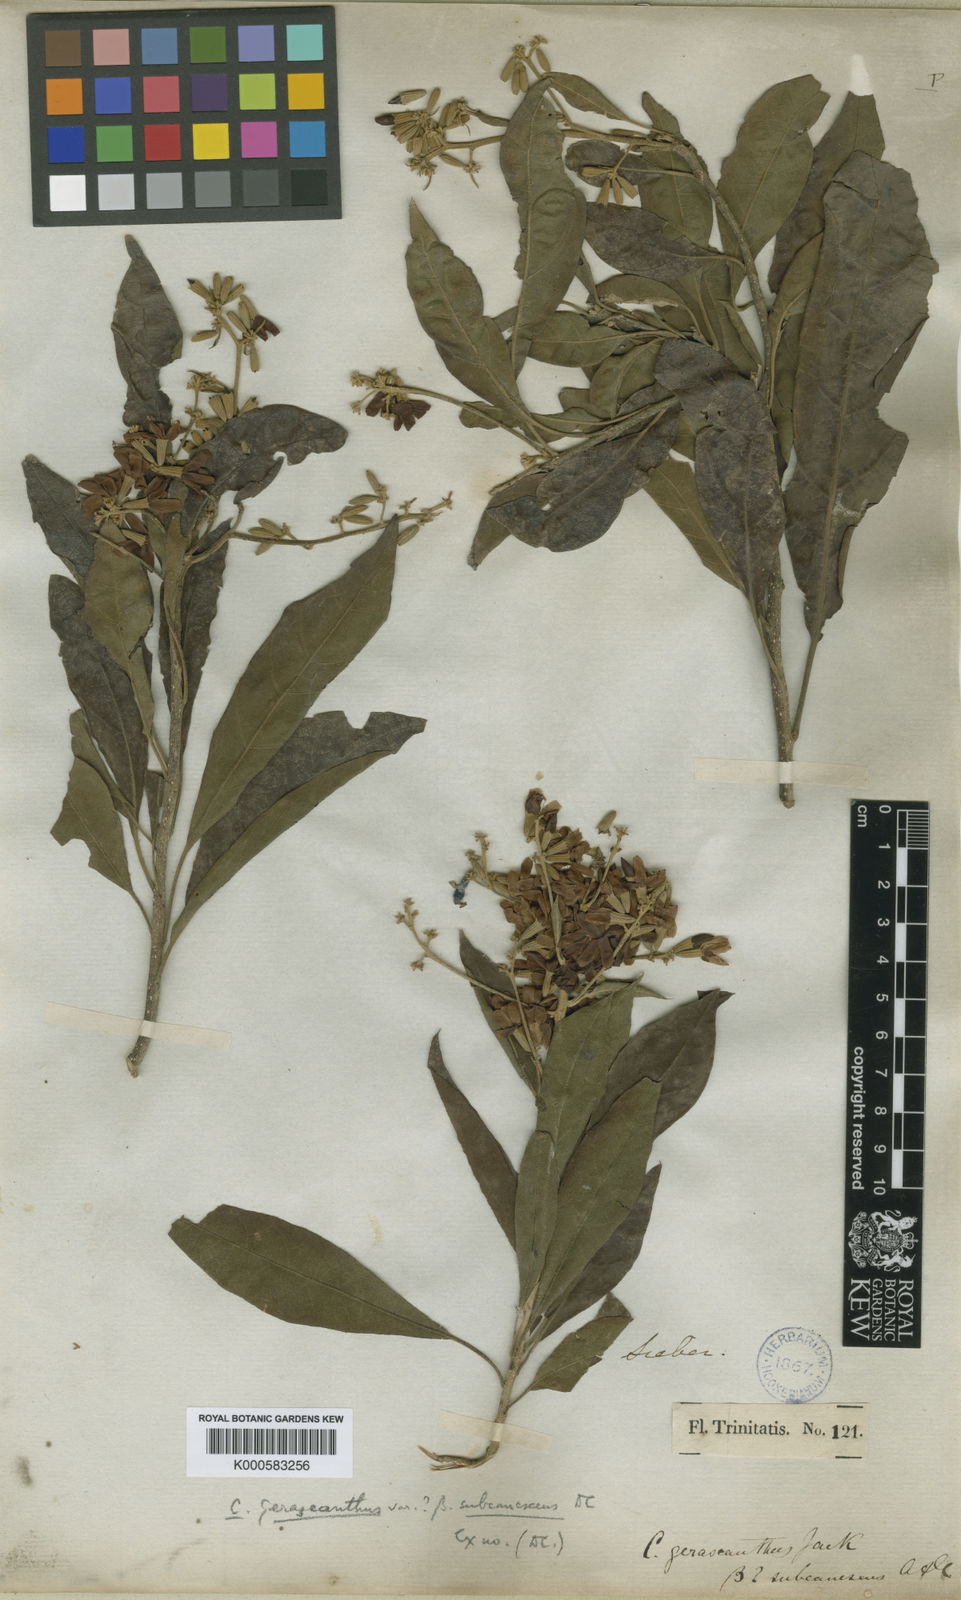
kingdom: Plantae
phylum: Tracheophyta
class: Magnoliopsida
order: Boraginales
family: Cordiaceae
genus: Cordia
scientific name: Cordia
